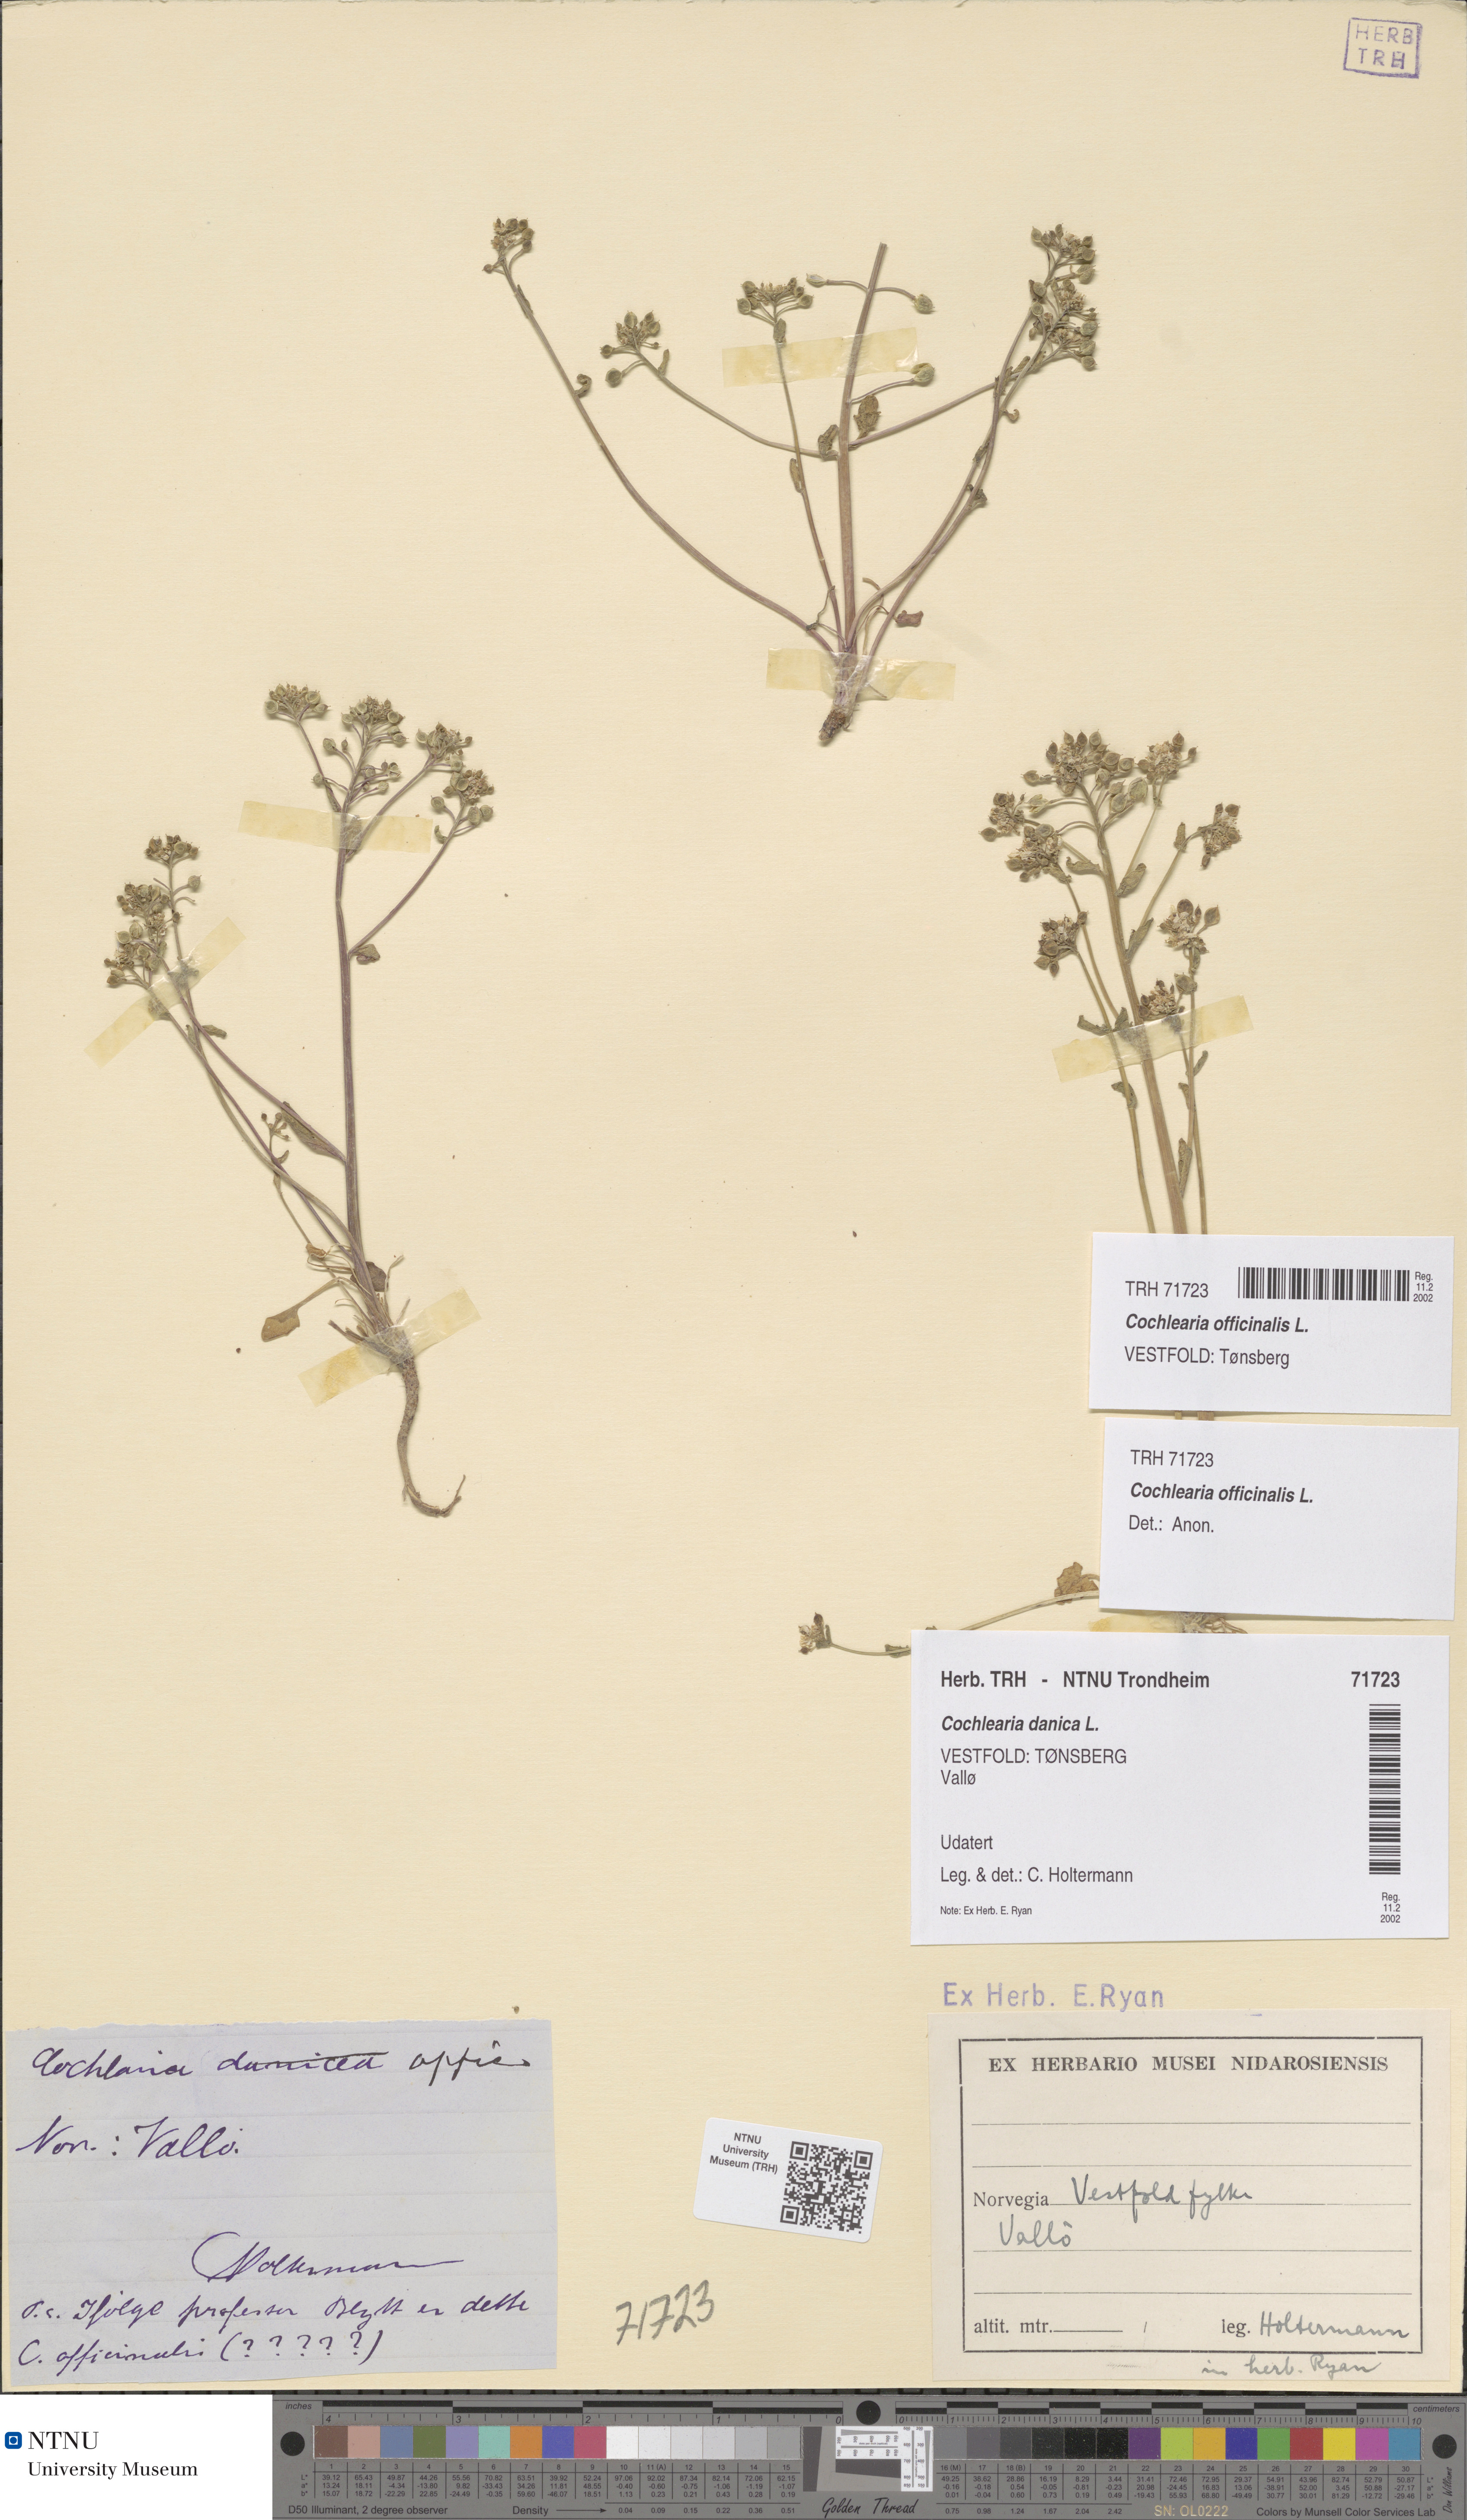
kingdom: Plantae
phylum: Tracheophyta
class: Magnoliopsida
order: Brassicales
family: Brassicaceae
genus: Cochlearia
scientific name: Cochlearia officinalis
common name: Scurvy-grass
